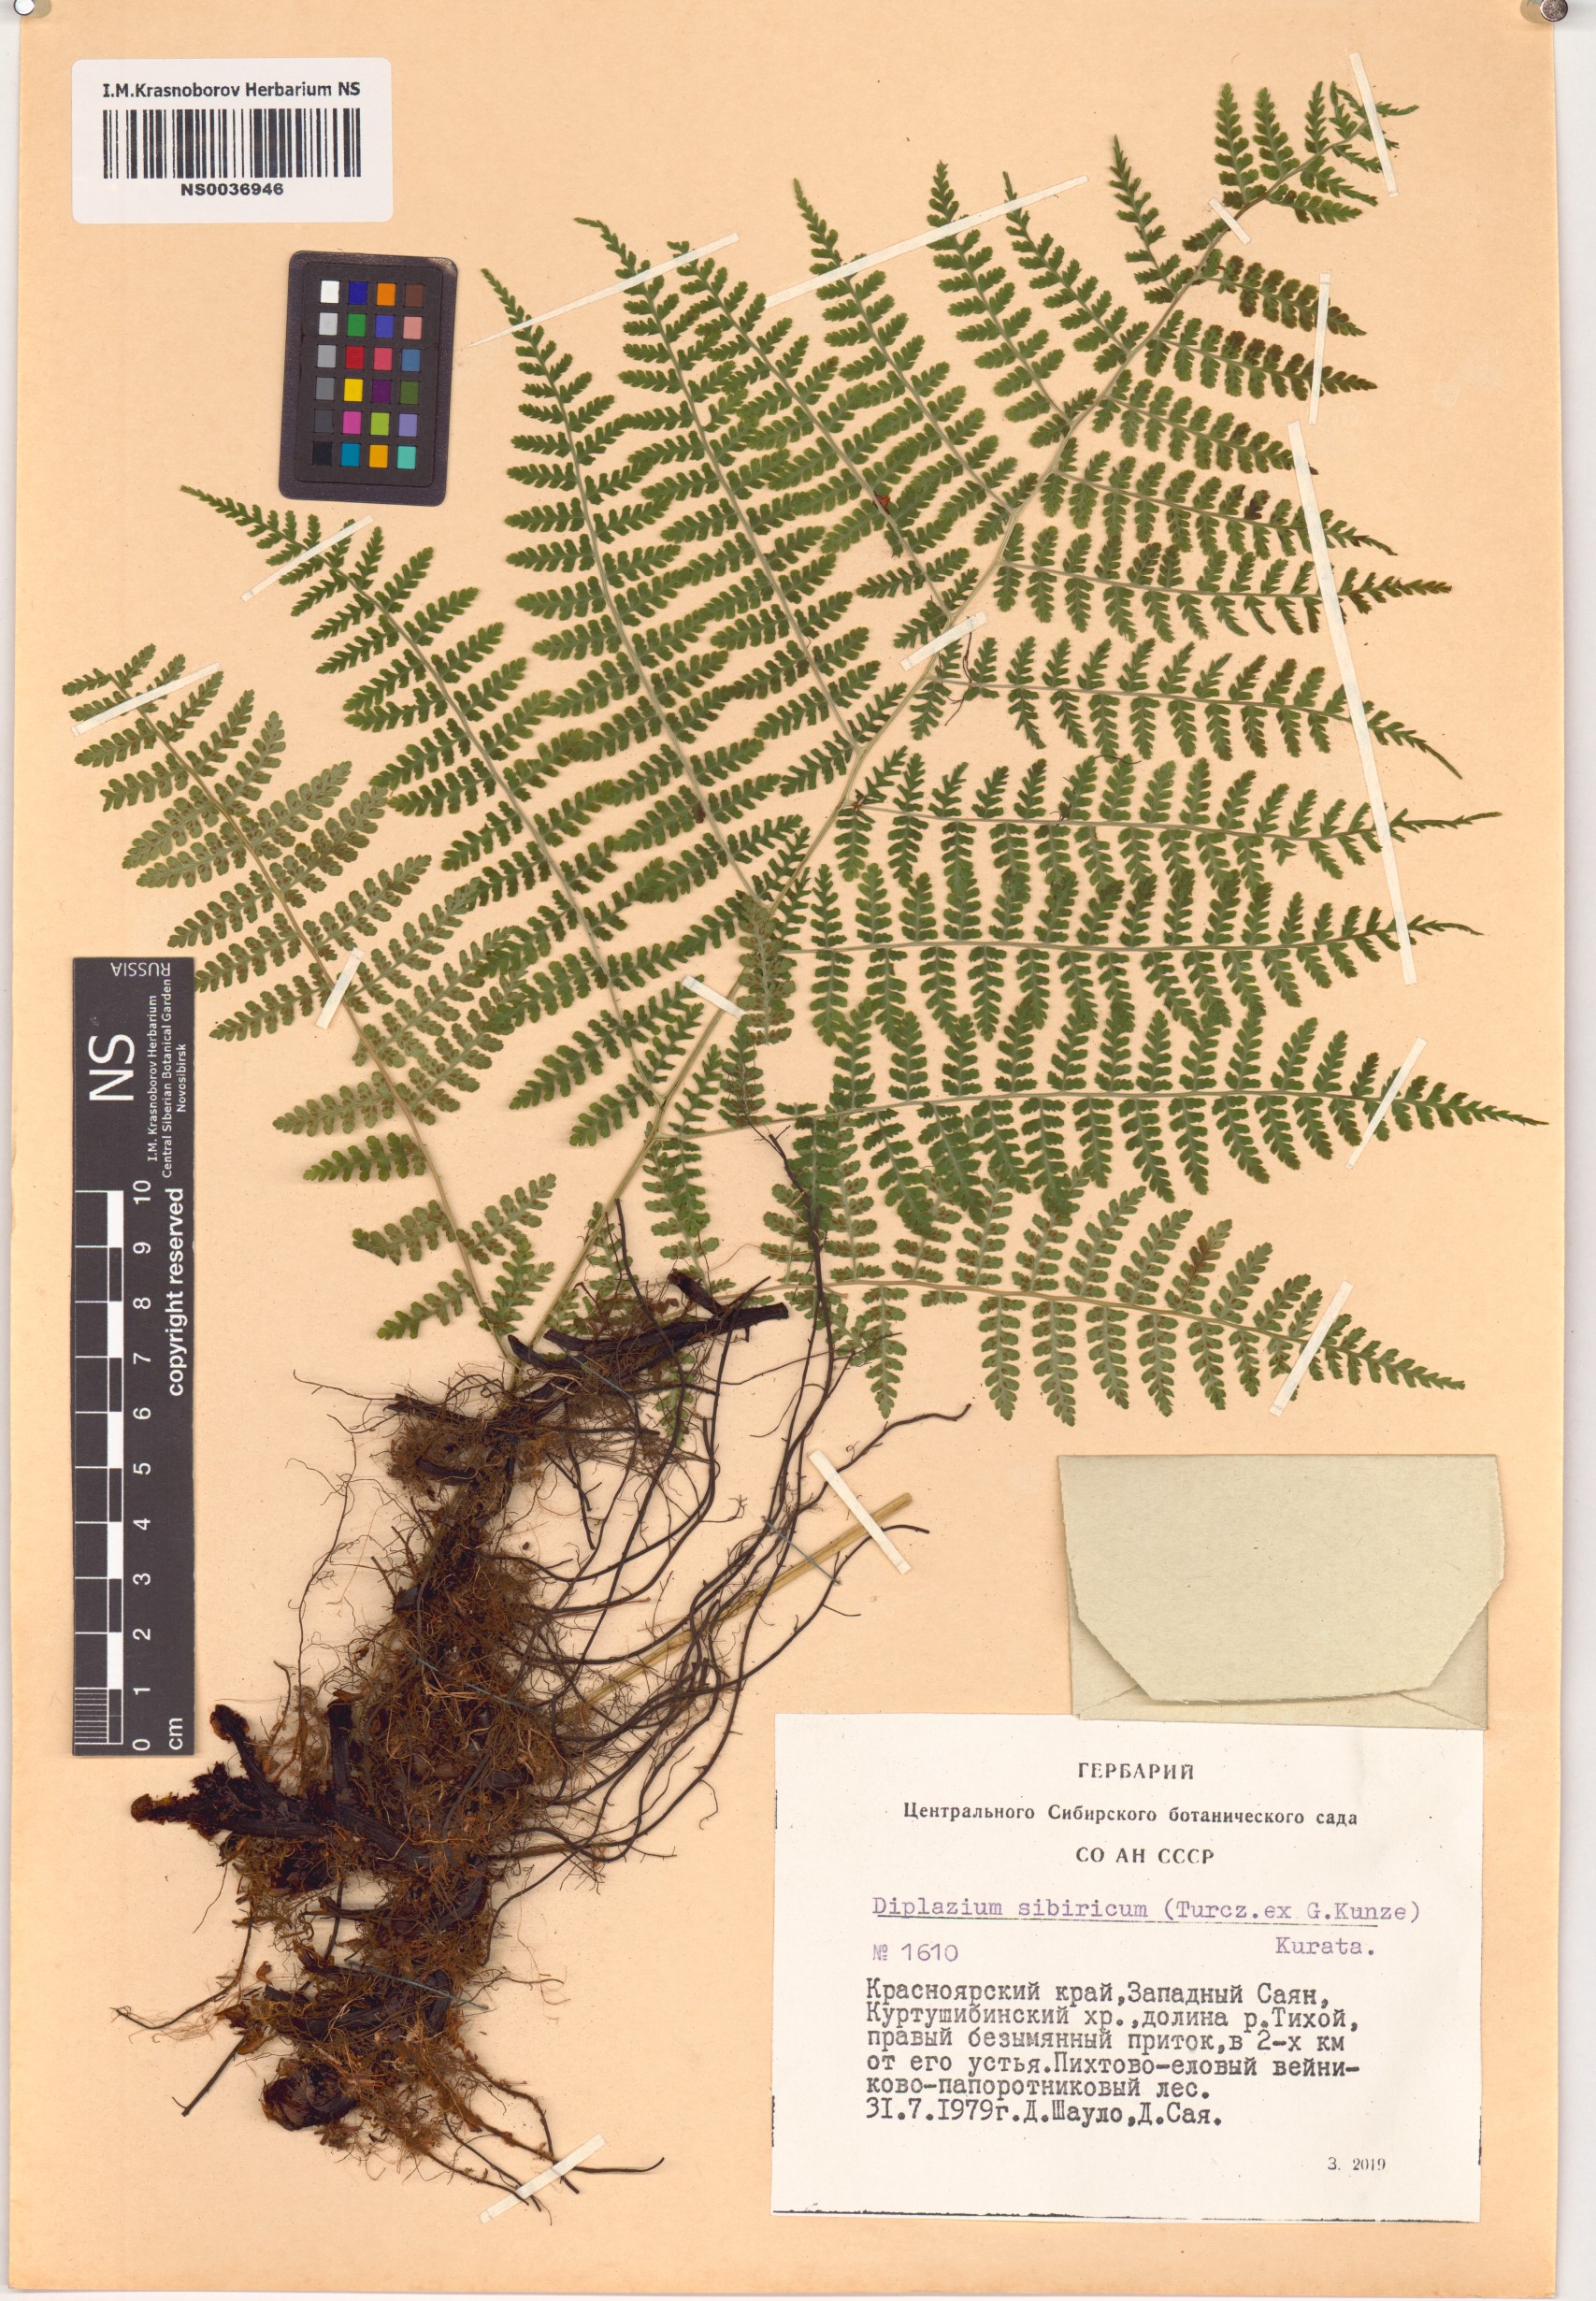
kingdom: Plantae
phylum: Tracheophyta
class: Polypodiopsida
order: Polypodiales
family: Athyriaceae
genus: Diplazium
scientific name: Diplazium sibiricum
